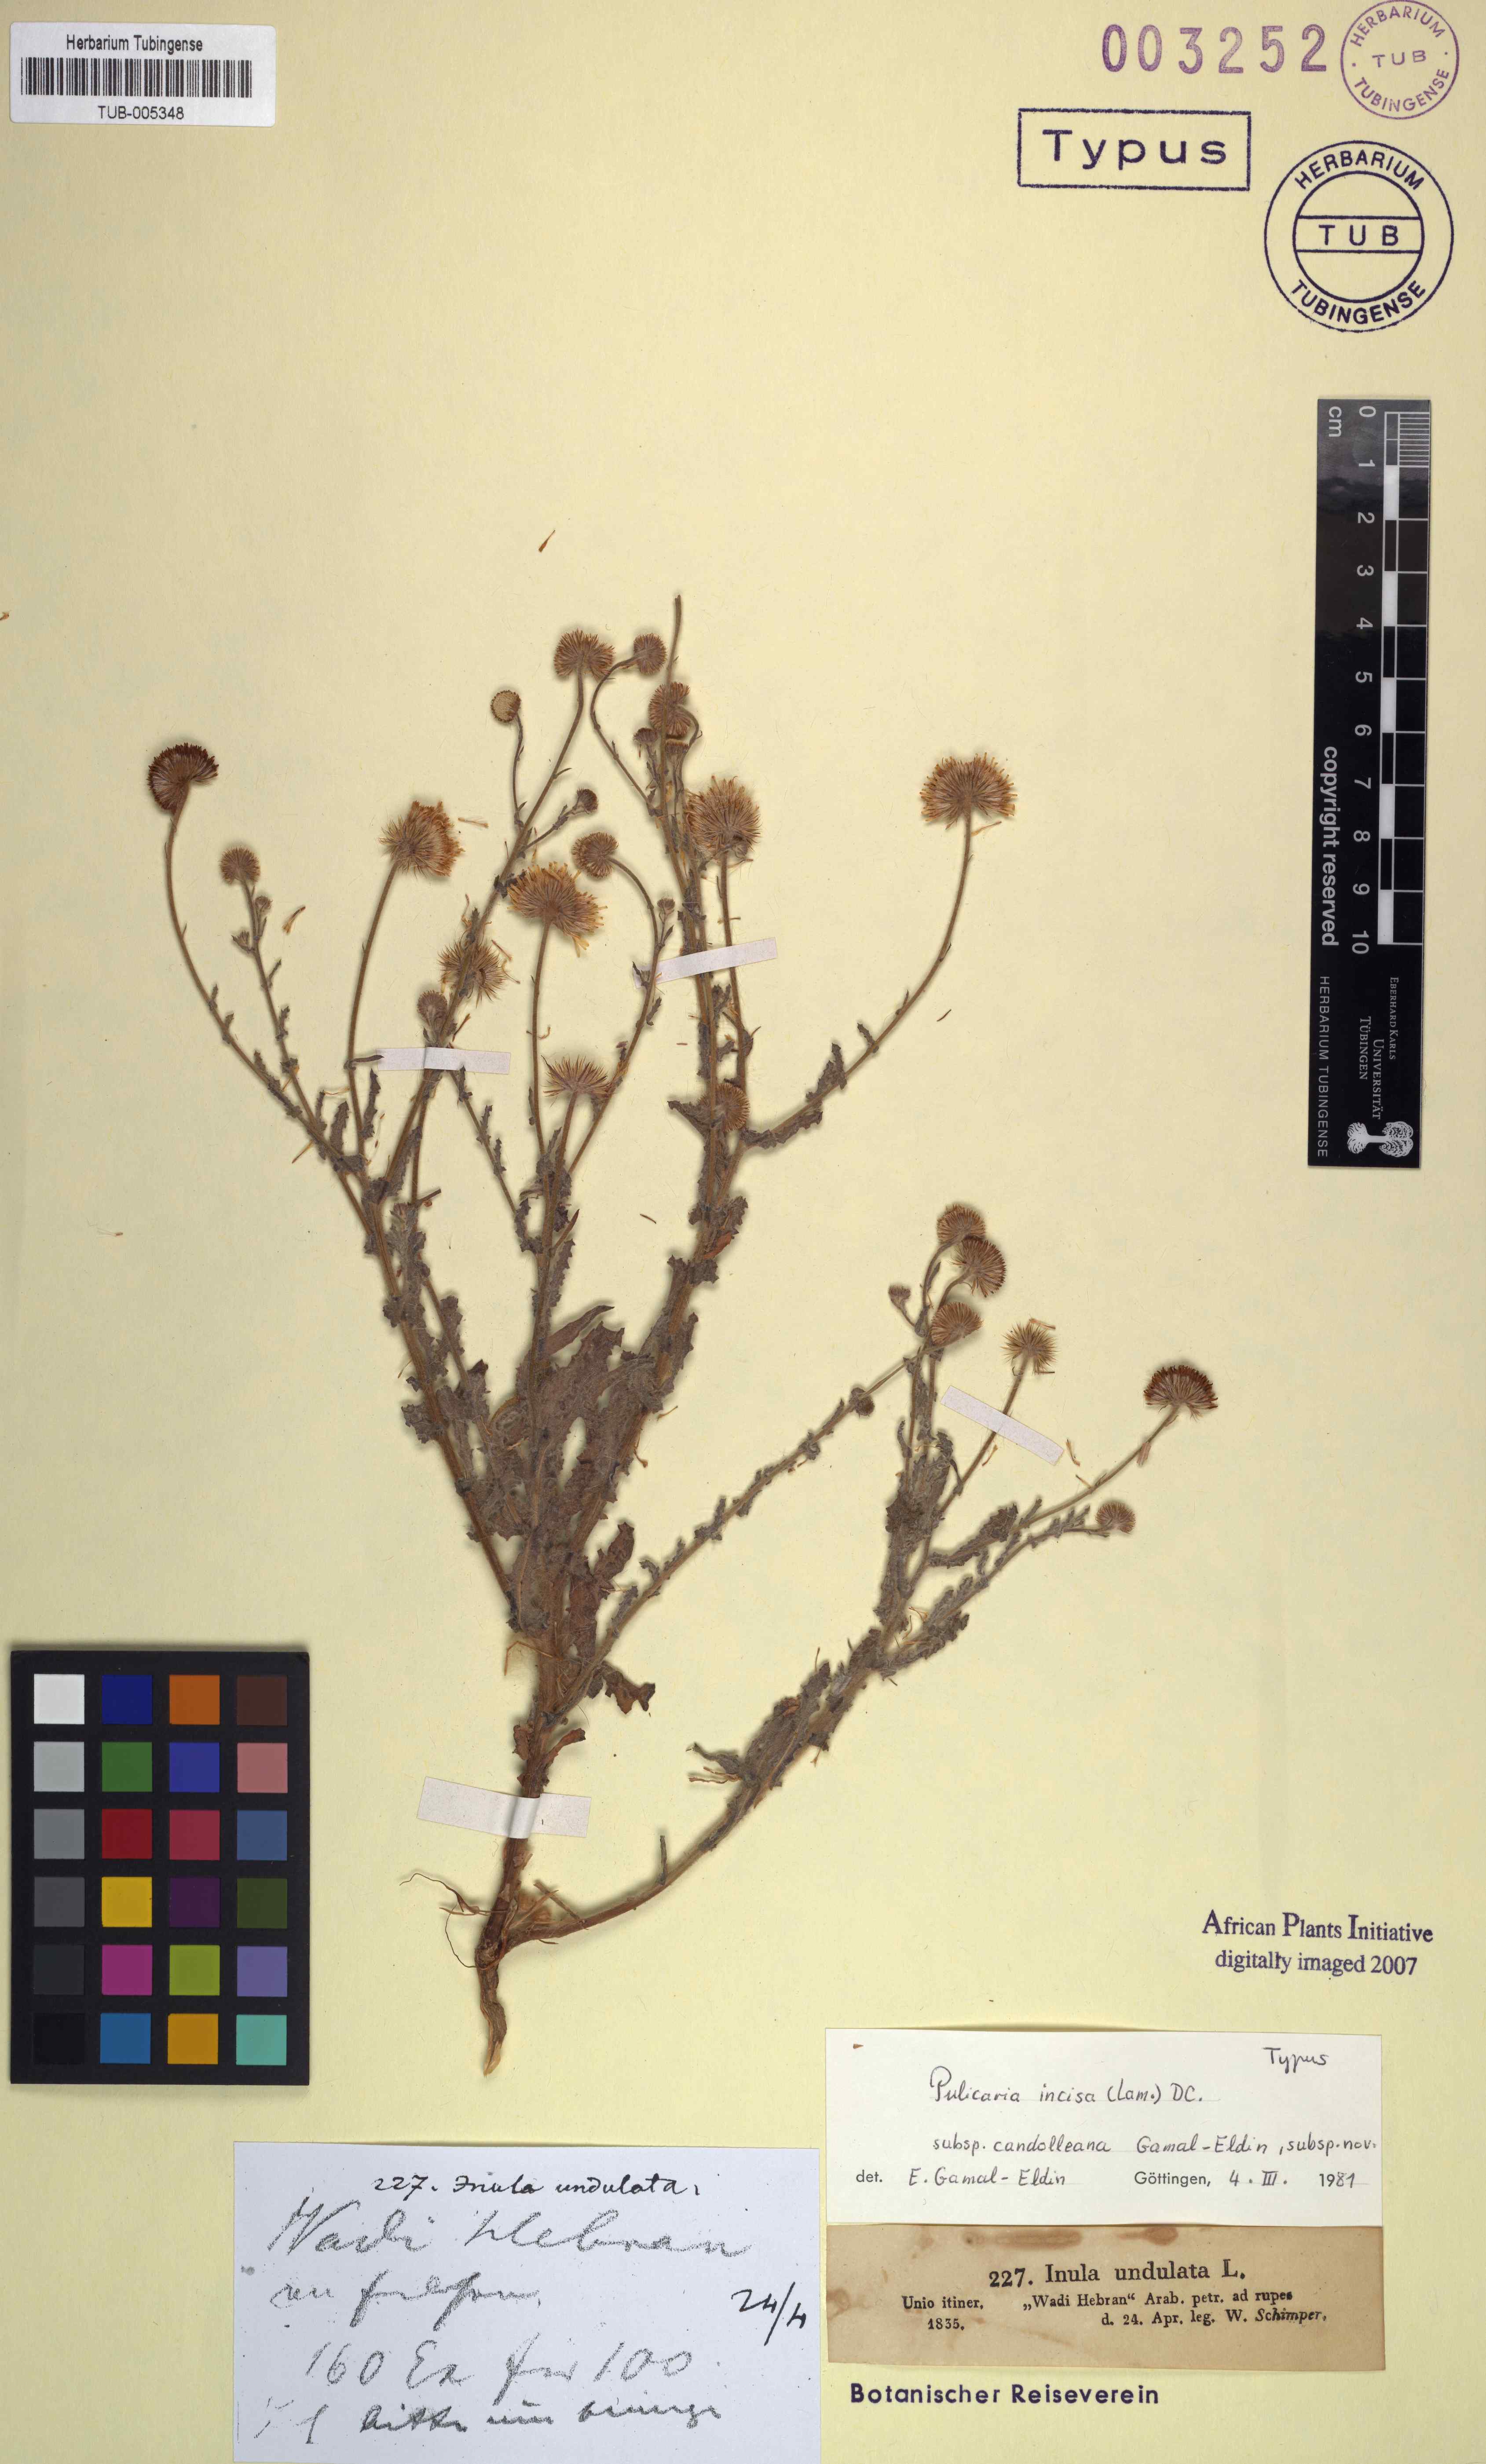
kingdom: Plantae
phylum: Tracheophyta
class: Magnoliopsida
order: Asterales
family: Asteraceae
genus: Pulicaria
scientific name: Pulicaria incisa
